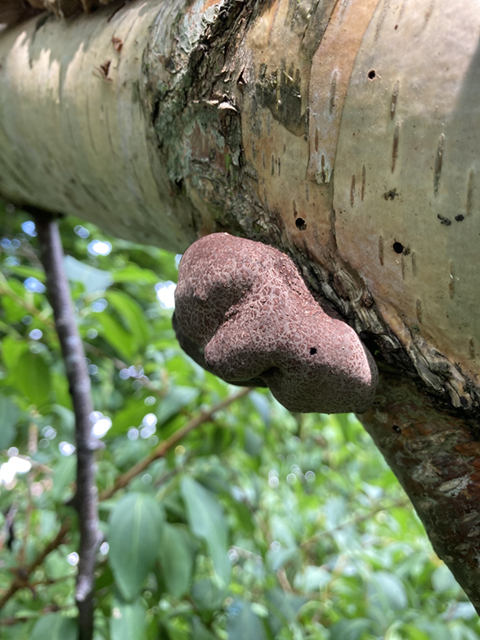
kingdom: Fungi
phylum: Ascomycota
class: Sordariomycetes
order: Xylariales
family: Hypoxylaceae
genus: Daldinia
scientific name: Daldinia petriniae
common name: elle-bæltekugle
